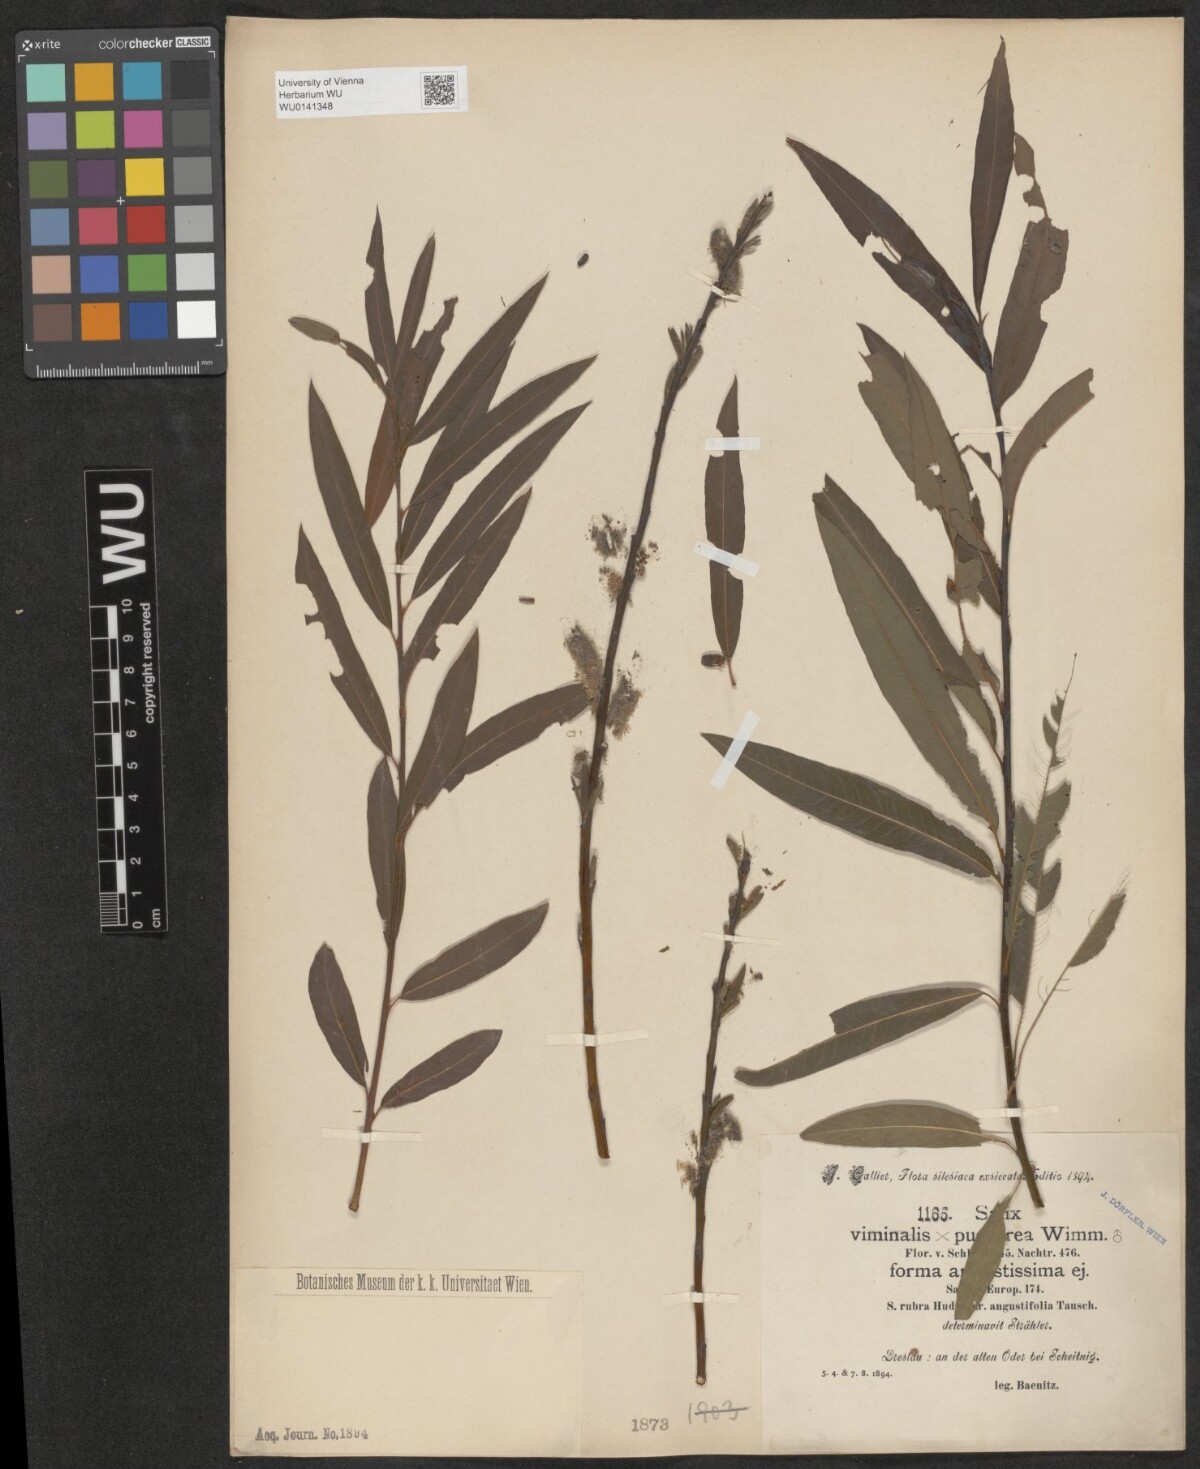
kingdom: Plantae
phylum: Tracheophyta
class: Magnoliopsida
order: Malpighiales
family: Salicaceae
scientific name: Salicaceae
